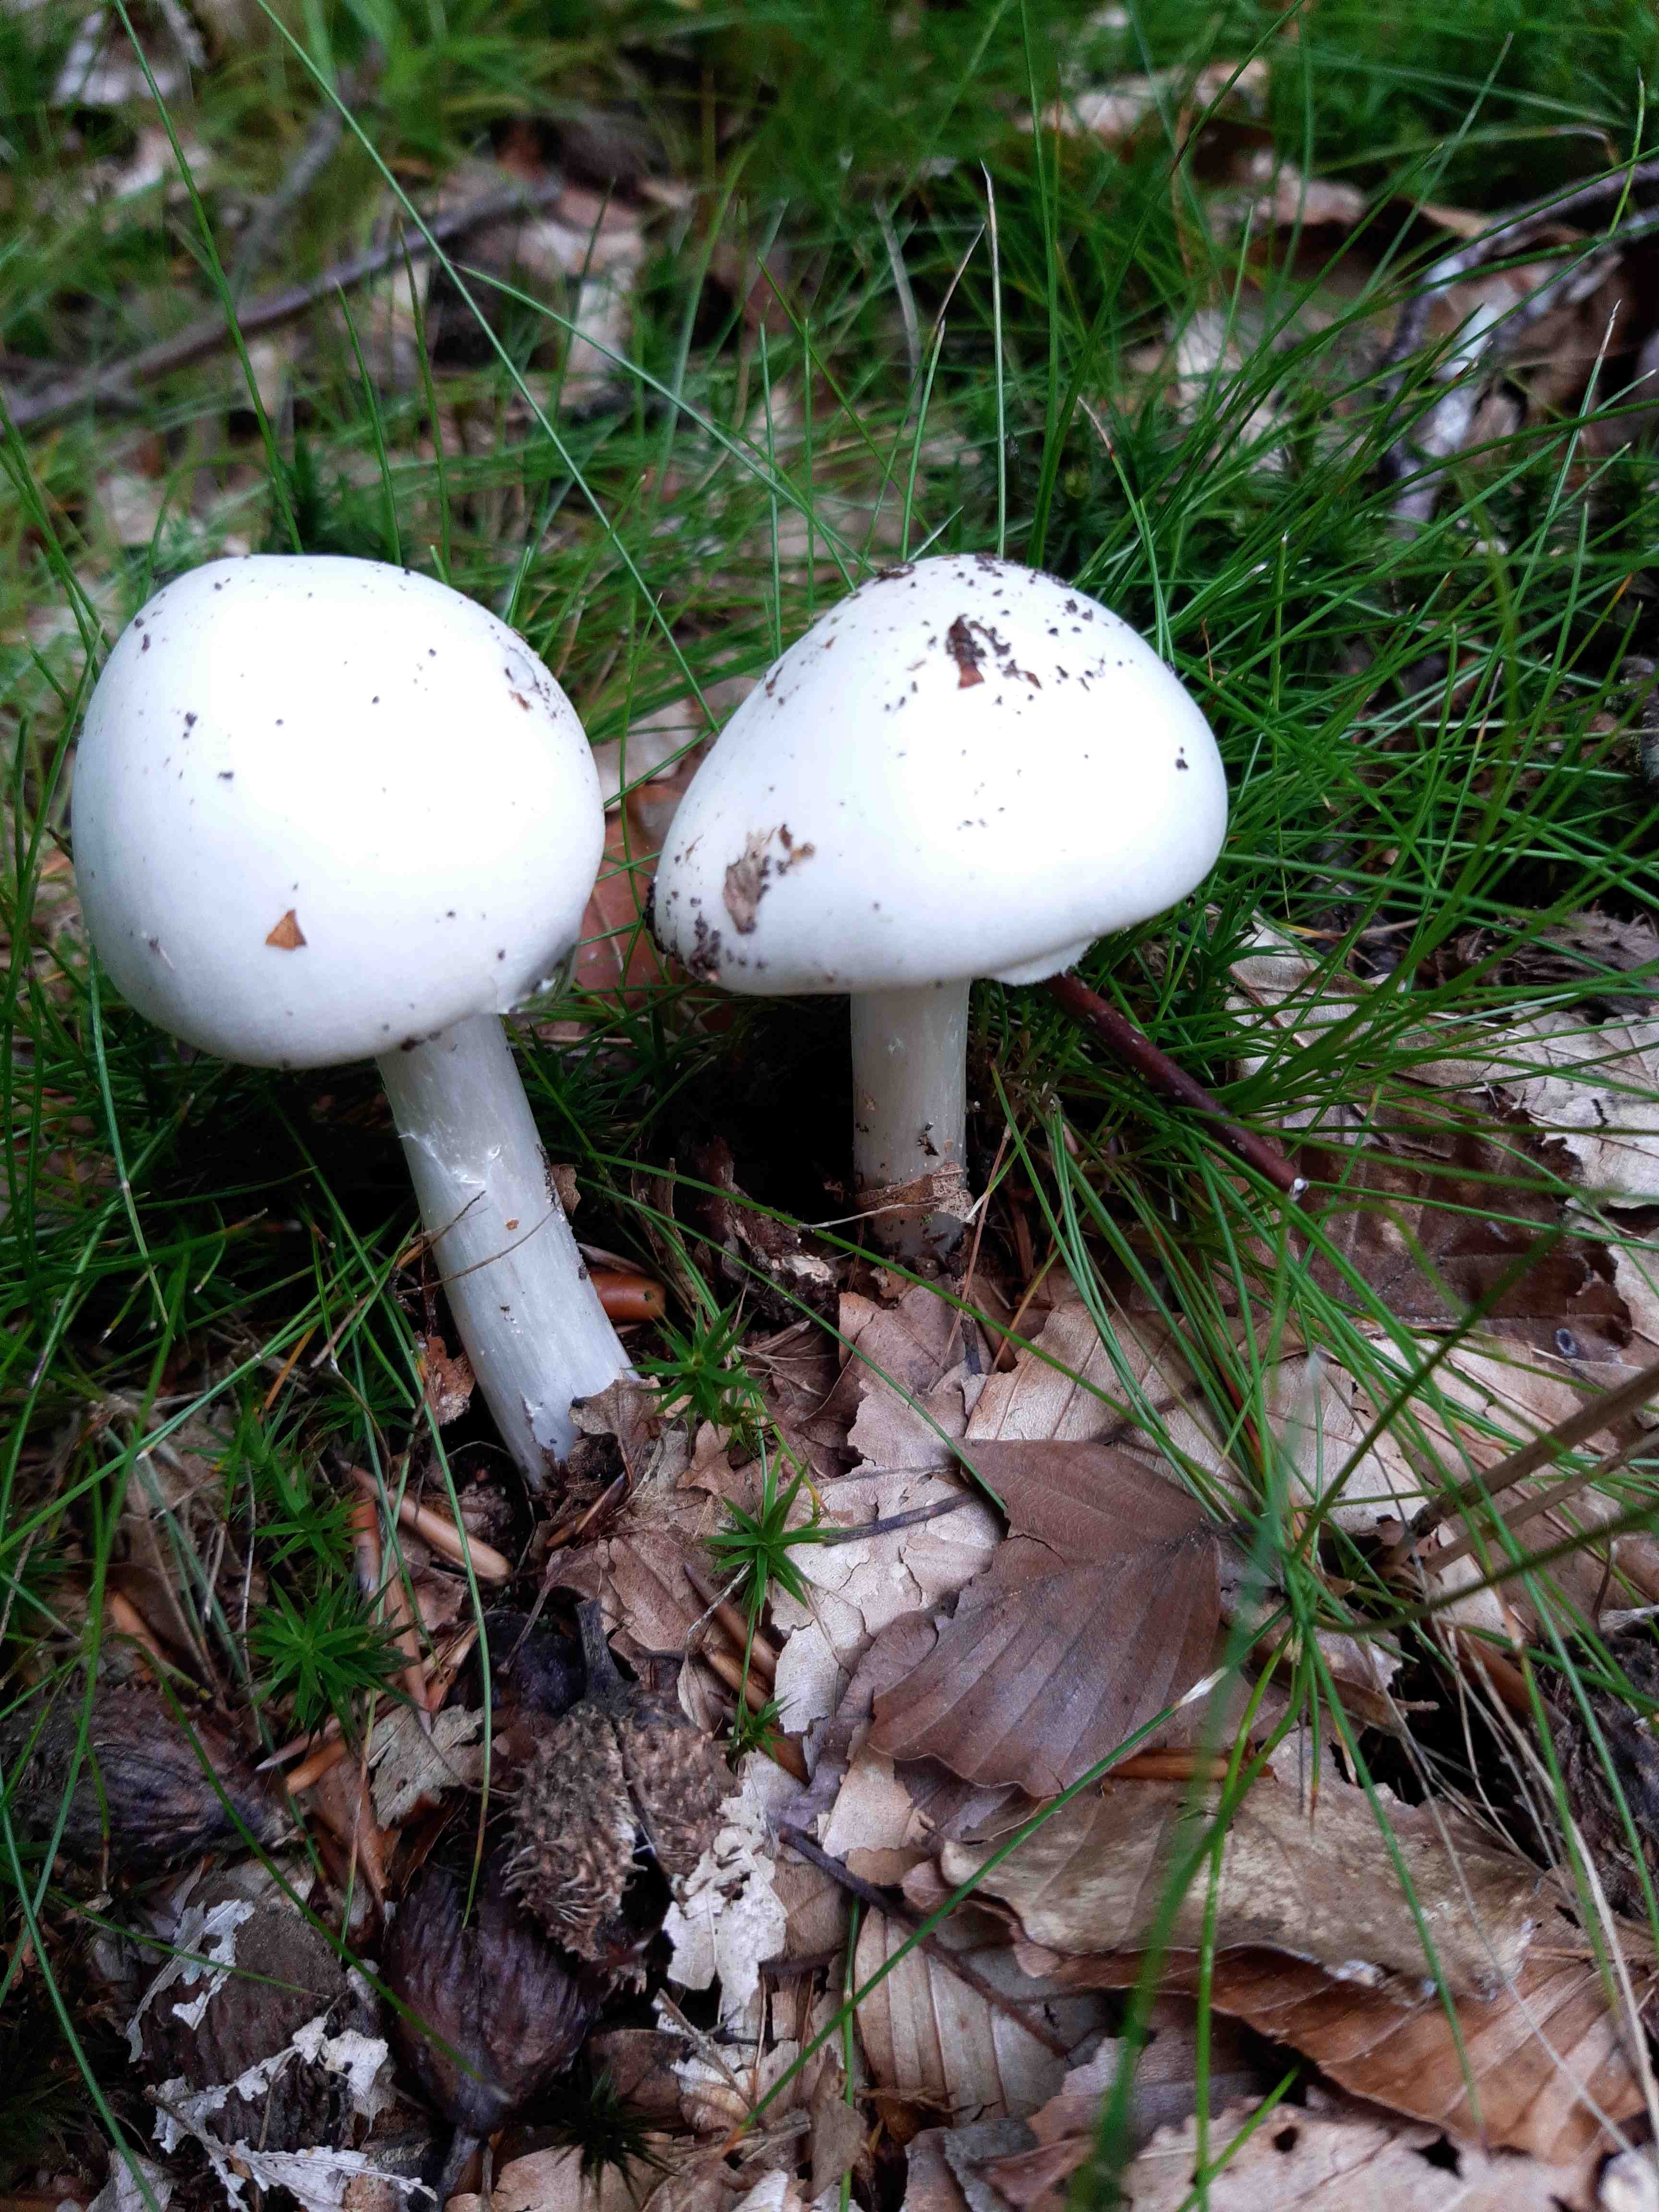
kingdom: Fungi
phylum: Basidiomycota
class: Agaricomycetes
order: Agaricales
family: Amanitaceae
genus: Amanita
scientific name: Amanita virosa
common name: snehvid fluesvamp
